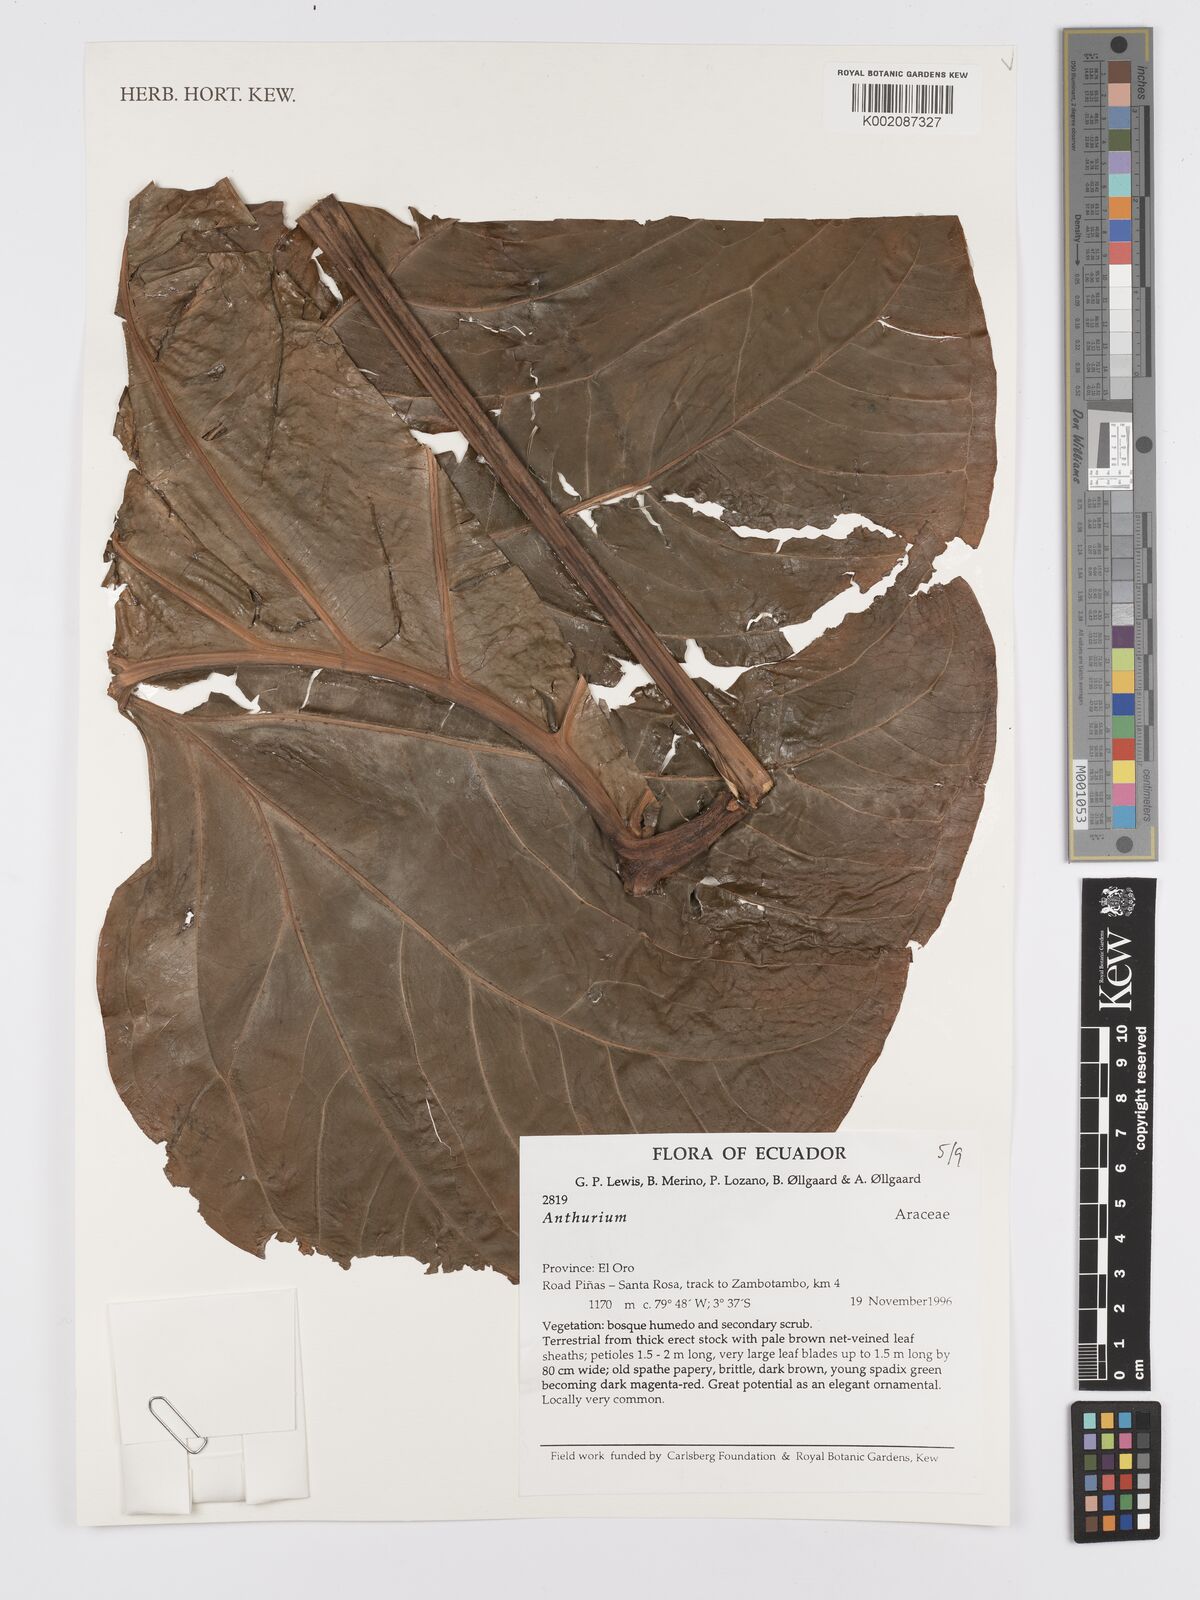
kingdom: Plantae
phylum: Tracheophyta
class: Liliopsida
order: Alismatales
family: Araceae
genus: Anthurium
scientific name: Anthurium
